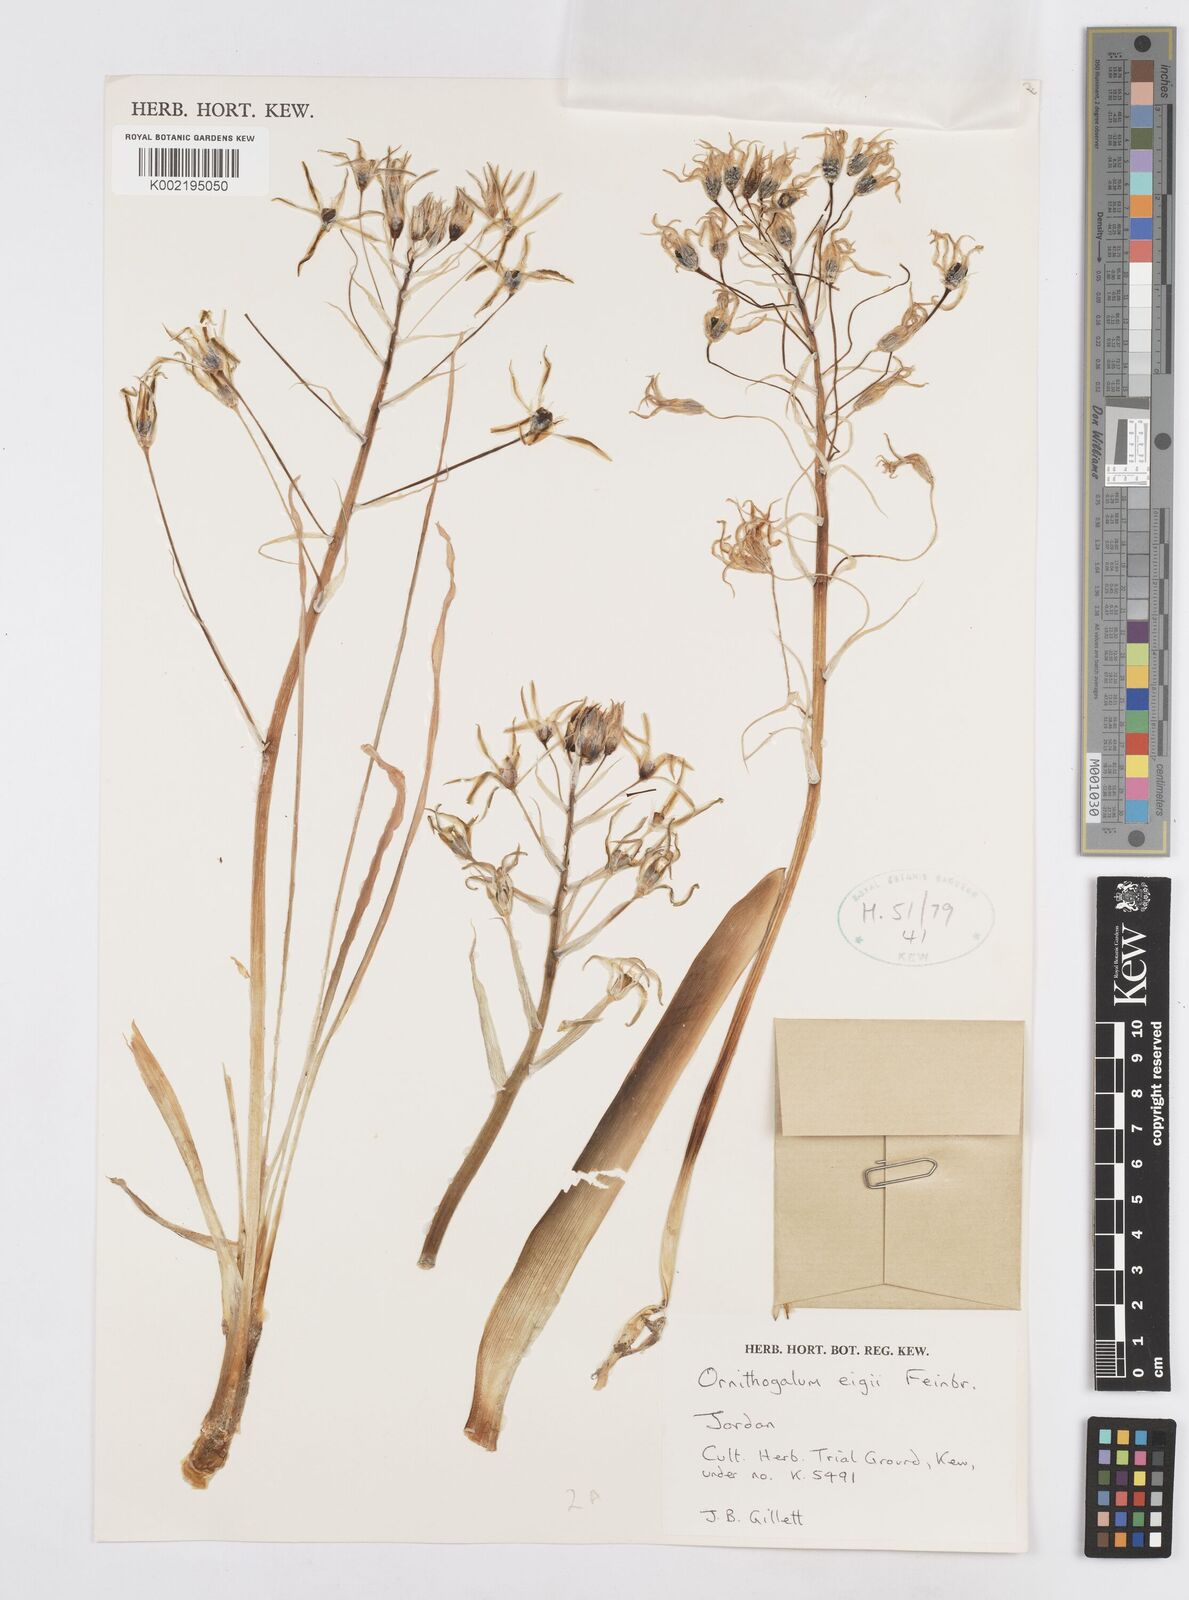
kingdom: Plantae
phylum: Tracheophyta
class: Liliopsida
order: Asparagales
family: Asparagaceae
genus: Ornithogalum
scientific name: Ornithogalum neurostegium
